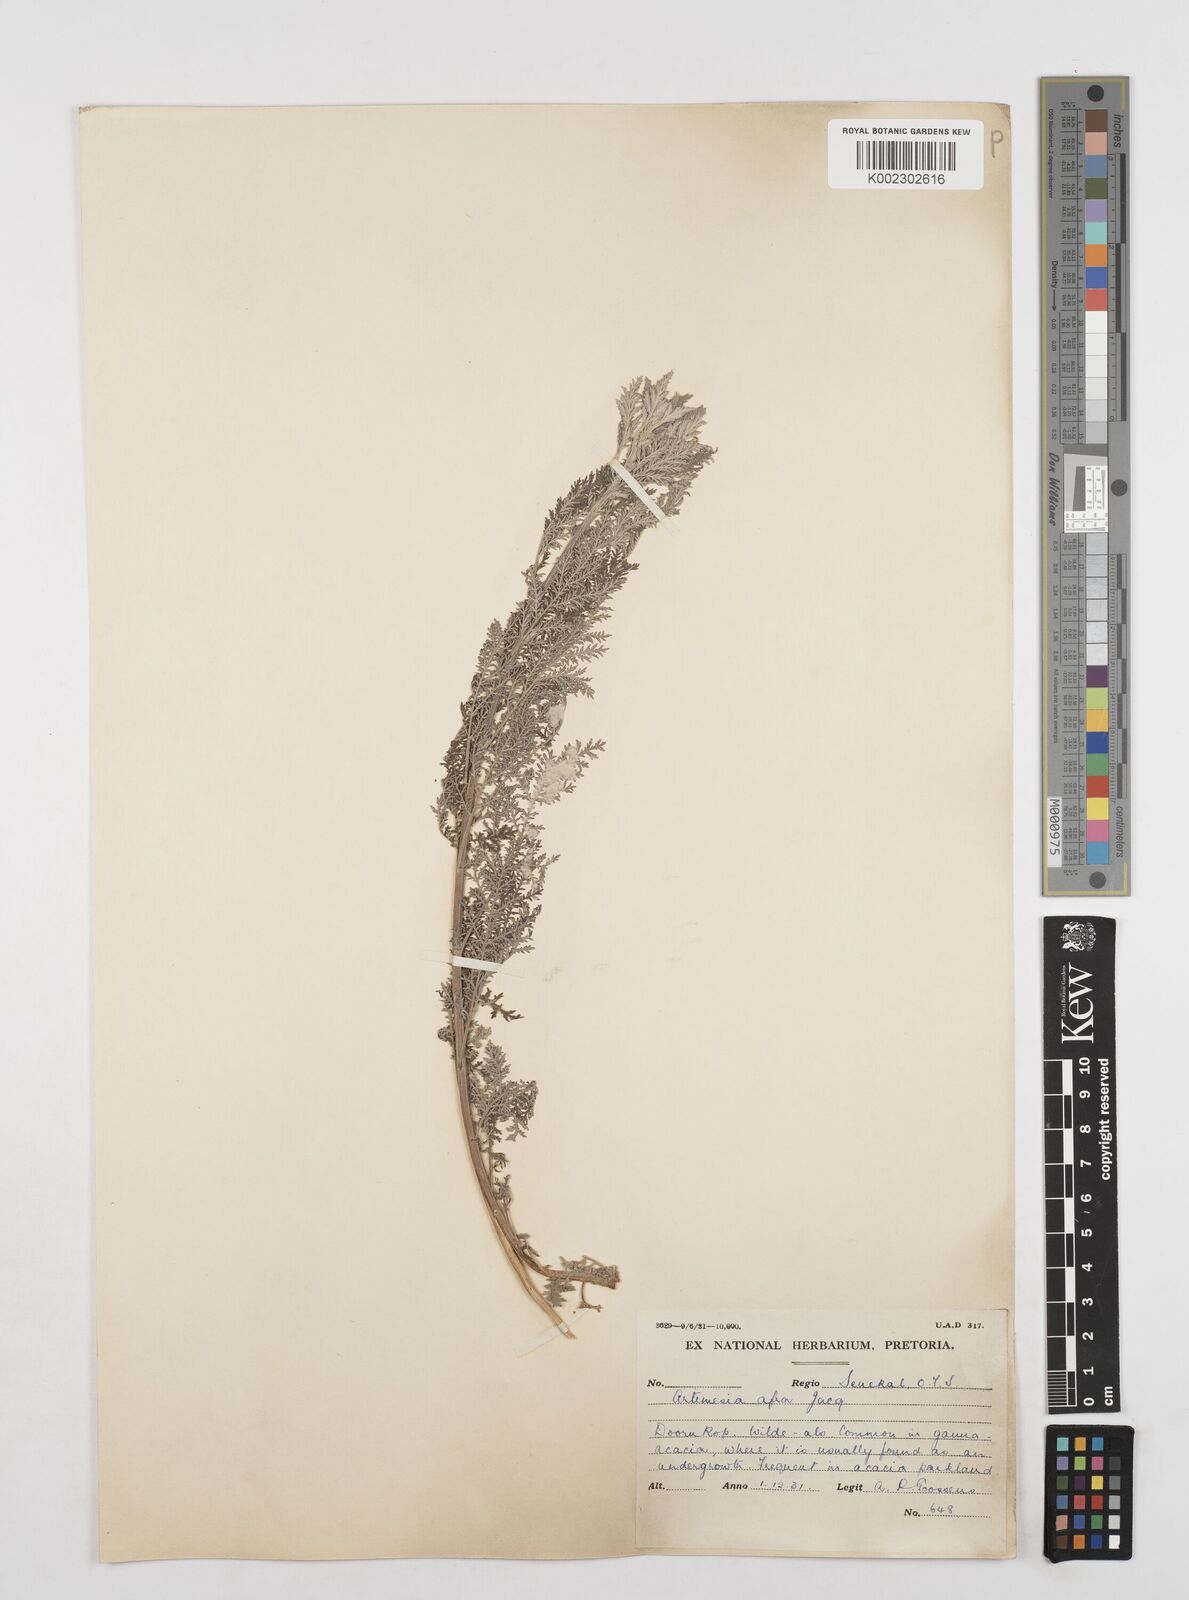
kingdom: Plantae
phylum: Tracheophyta
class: Magnoliopsida
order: Asterales
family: Asteraceae
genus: Artemisia
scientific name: Artemisia afra
